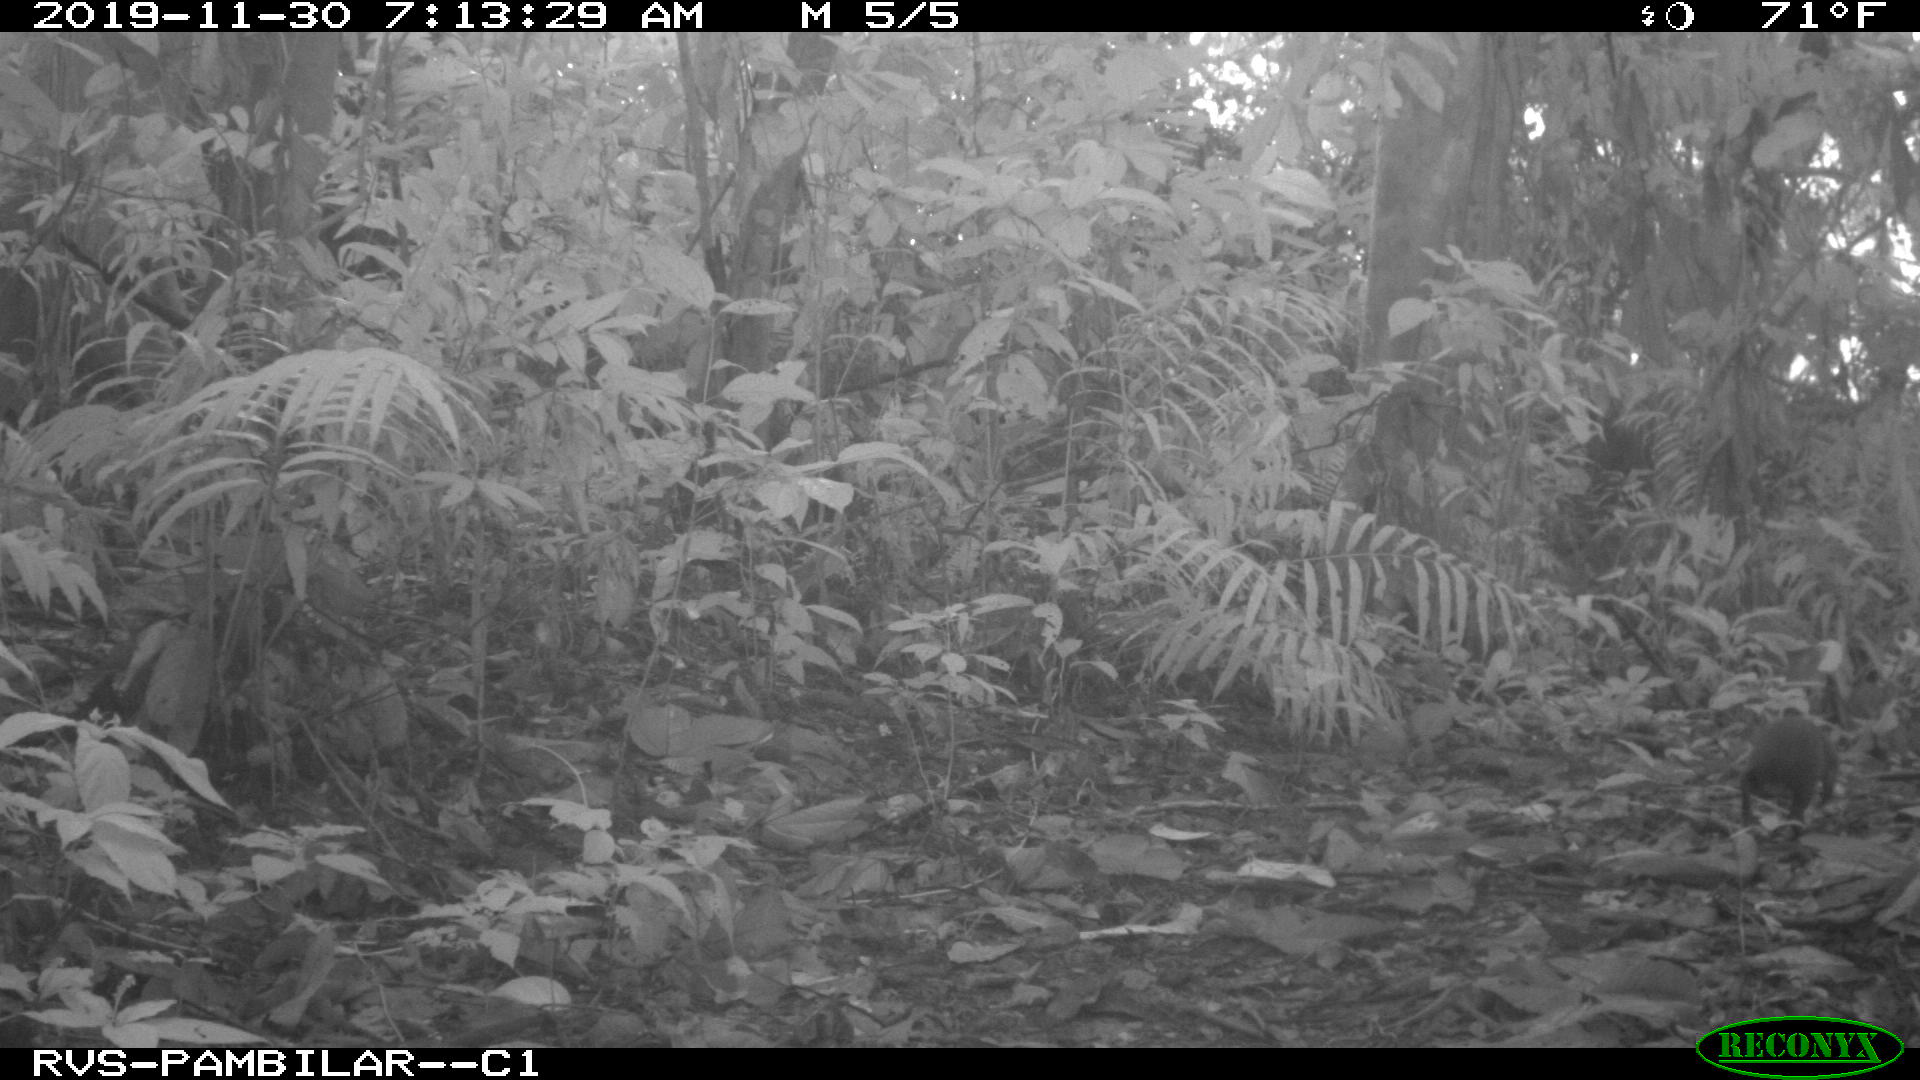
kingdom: Animalia
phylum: Chordata
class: Mammalia
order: Rodentia
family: Dasyproctidae
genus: Dasyprocta
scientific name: Dasyprocta punctata
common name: Central american agouti
